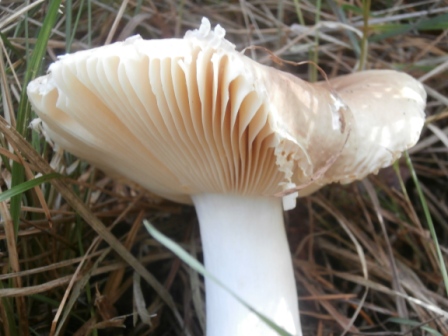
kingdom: Fungi
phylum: Basidiomycota
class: Agaricomycetes
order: Russulales
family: Russulaceae
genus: Russula
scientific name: Russula nauseosa
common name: spinkel skørhat
